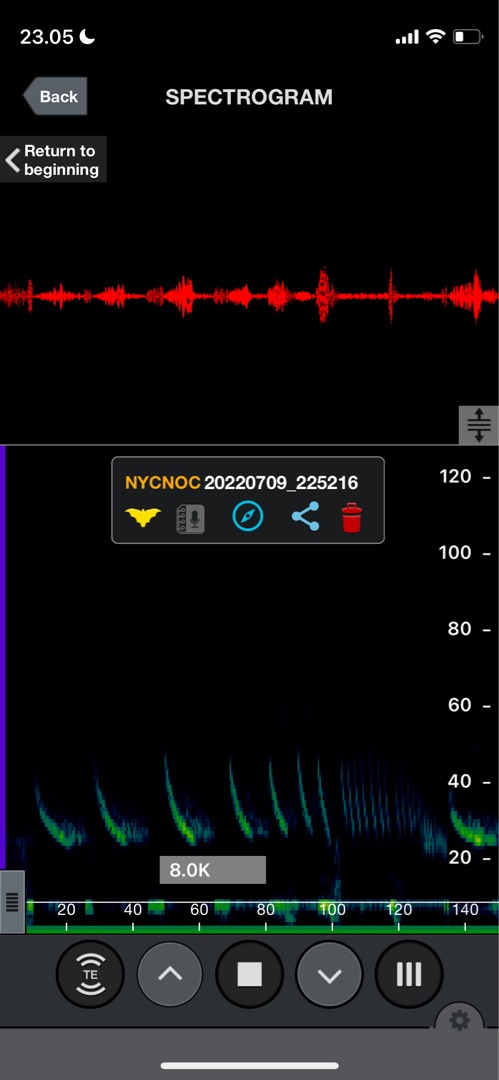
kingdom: Animalia
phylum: Chordata
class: Mammalia
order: Chiroptera
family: Vespertilionidae
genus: Nyctalus
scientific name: Nyctalus noctula
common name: Brunflagermus
